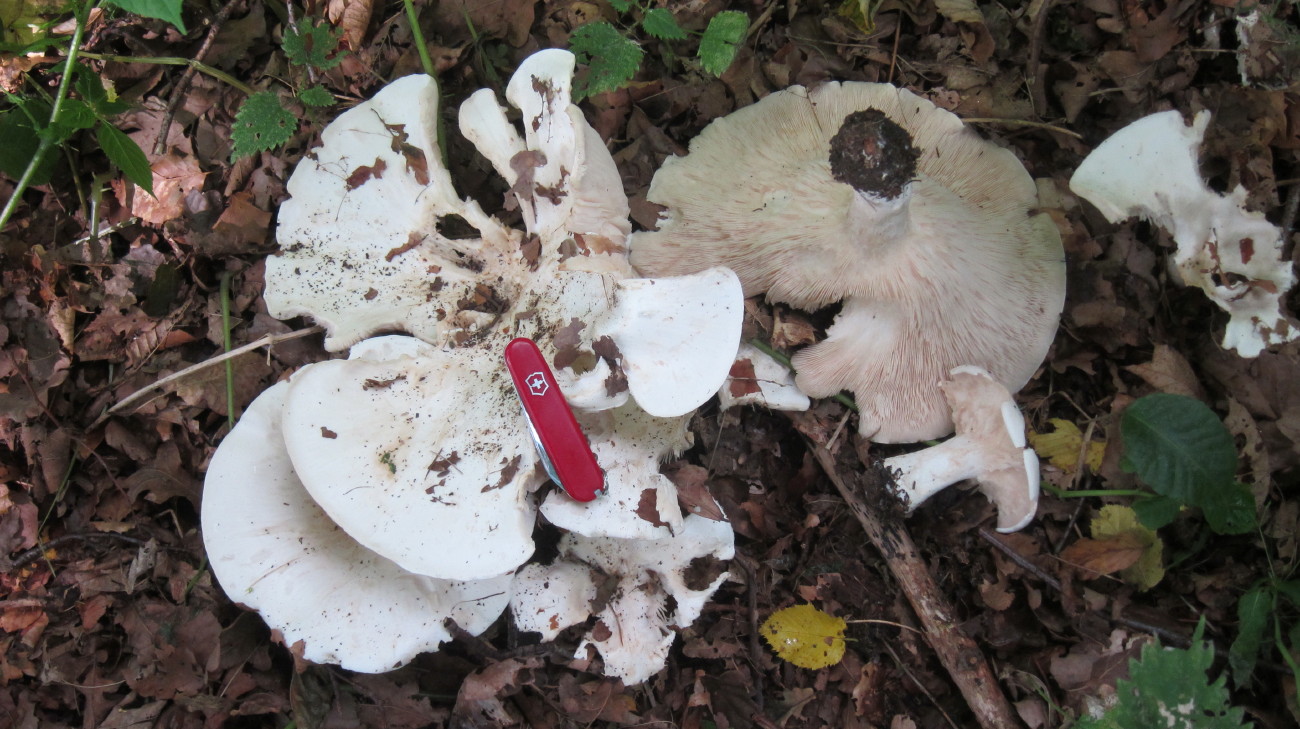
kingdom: Fungi
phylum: Basidiomycota
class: Agaricomycetes
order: Agaricales
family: Tricholomataceae
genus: Aspropaxillus
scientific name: Aspropaxillus giganteus
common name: kæmpe-tragtridderhat
